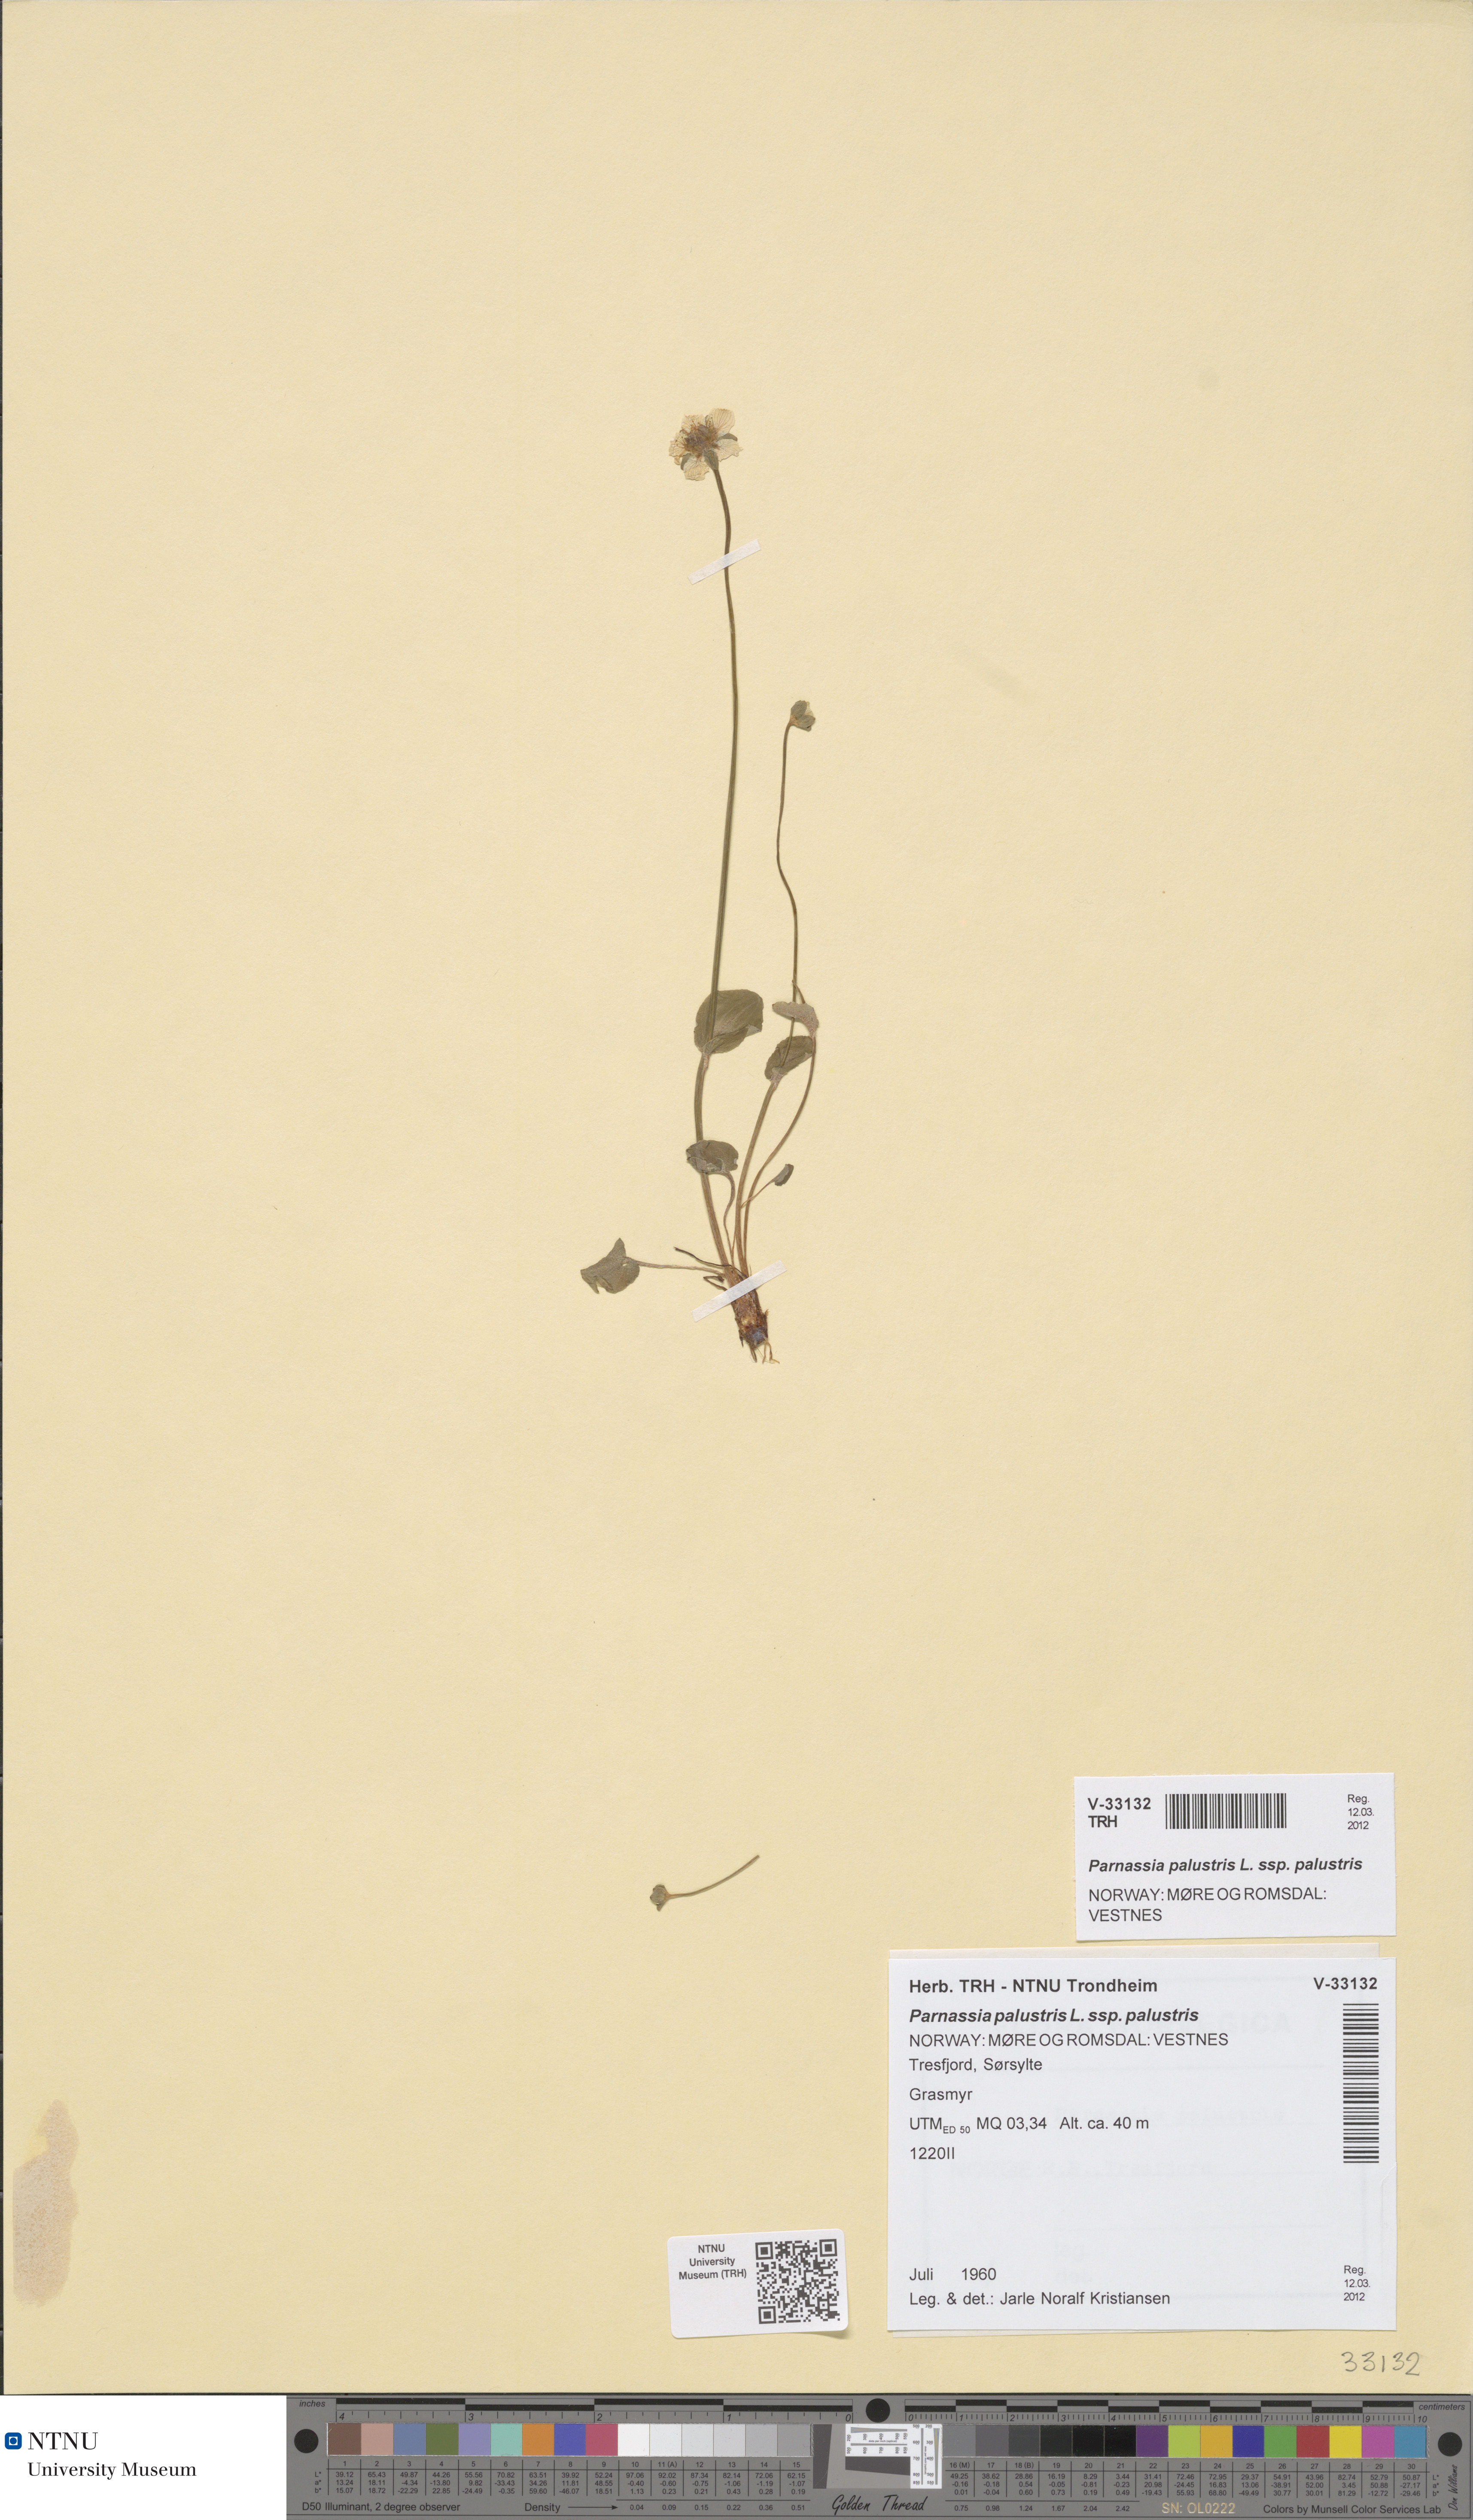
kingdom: Plantae
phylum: Tracheophyta
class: Magnoliopsida
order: Celastrales
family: Parnassiaceae
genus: Parnassia
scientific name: Parnassia palustris
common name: Grass-of-parnassus
